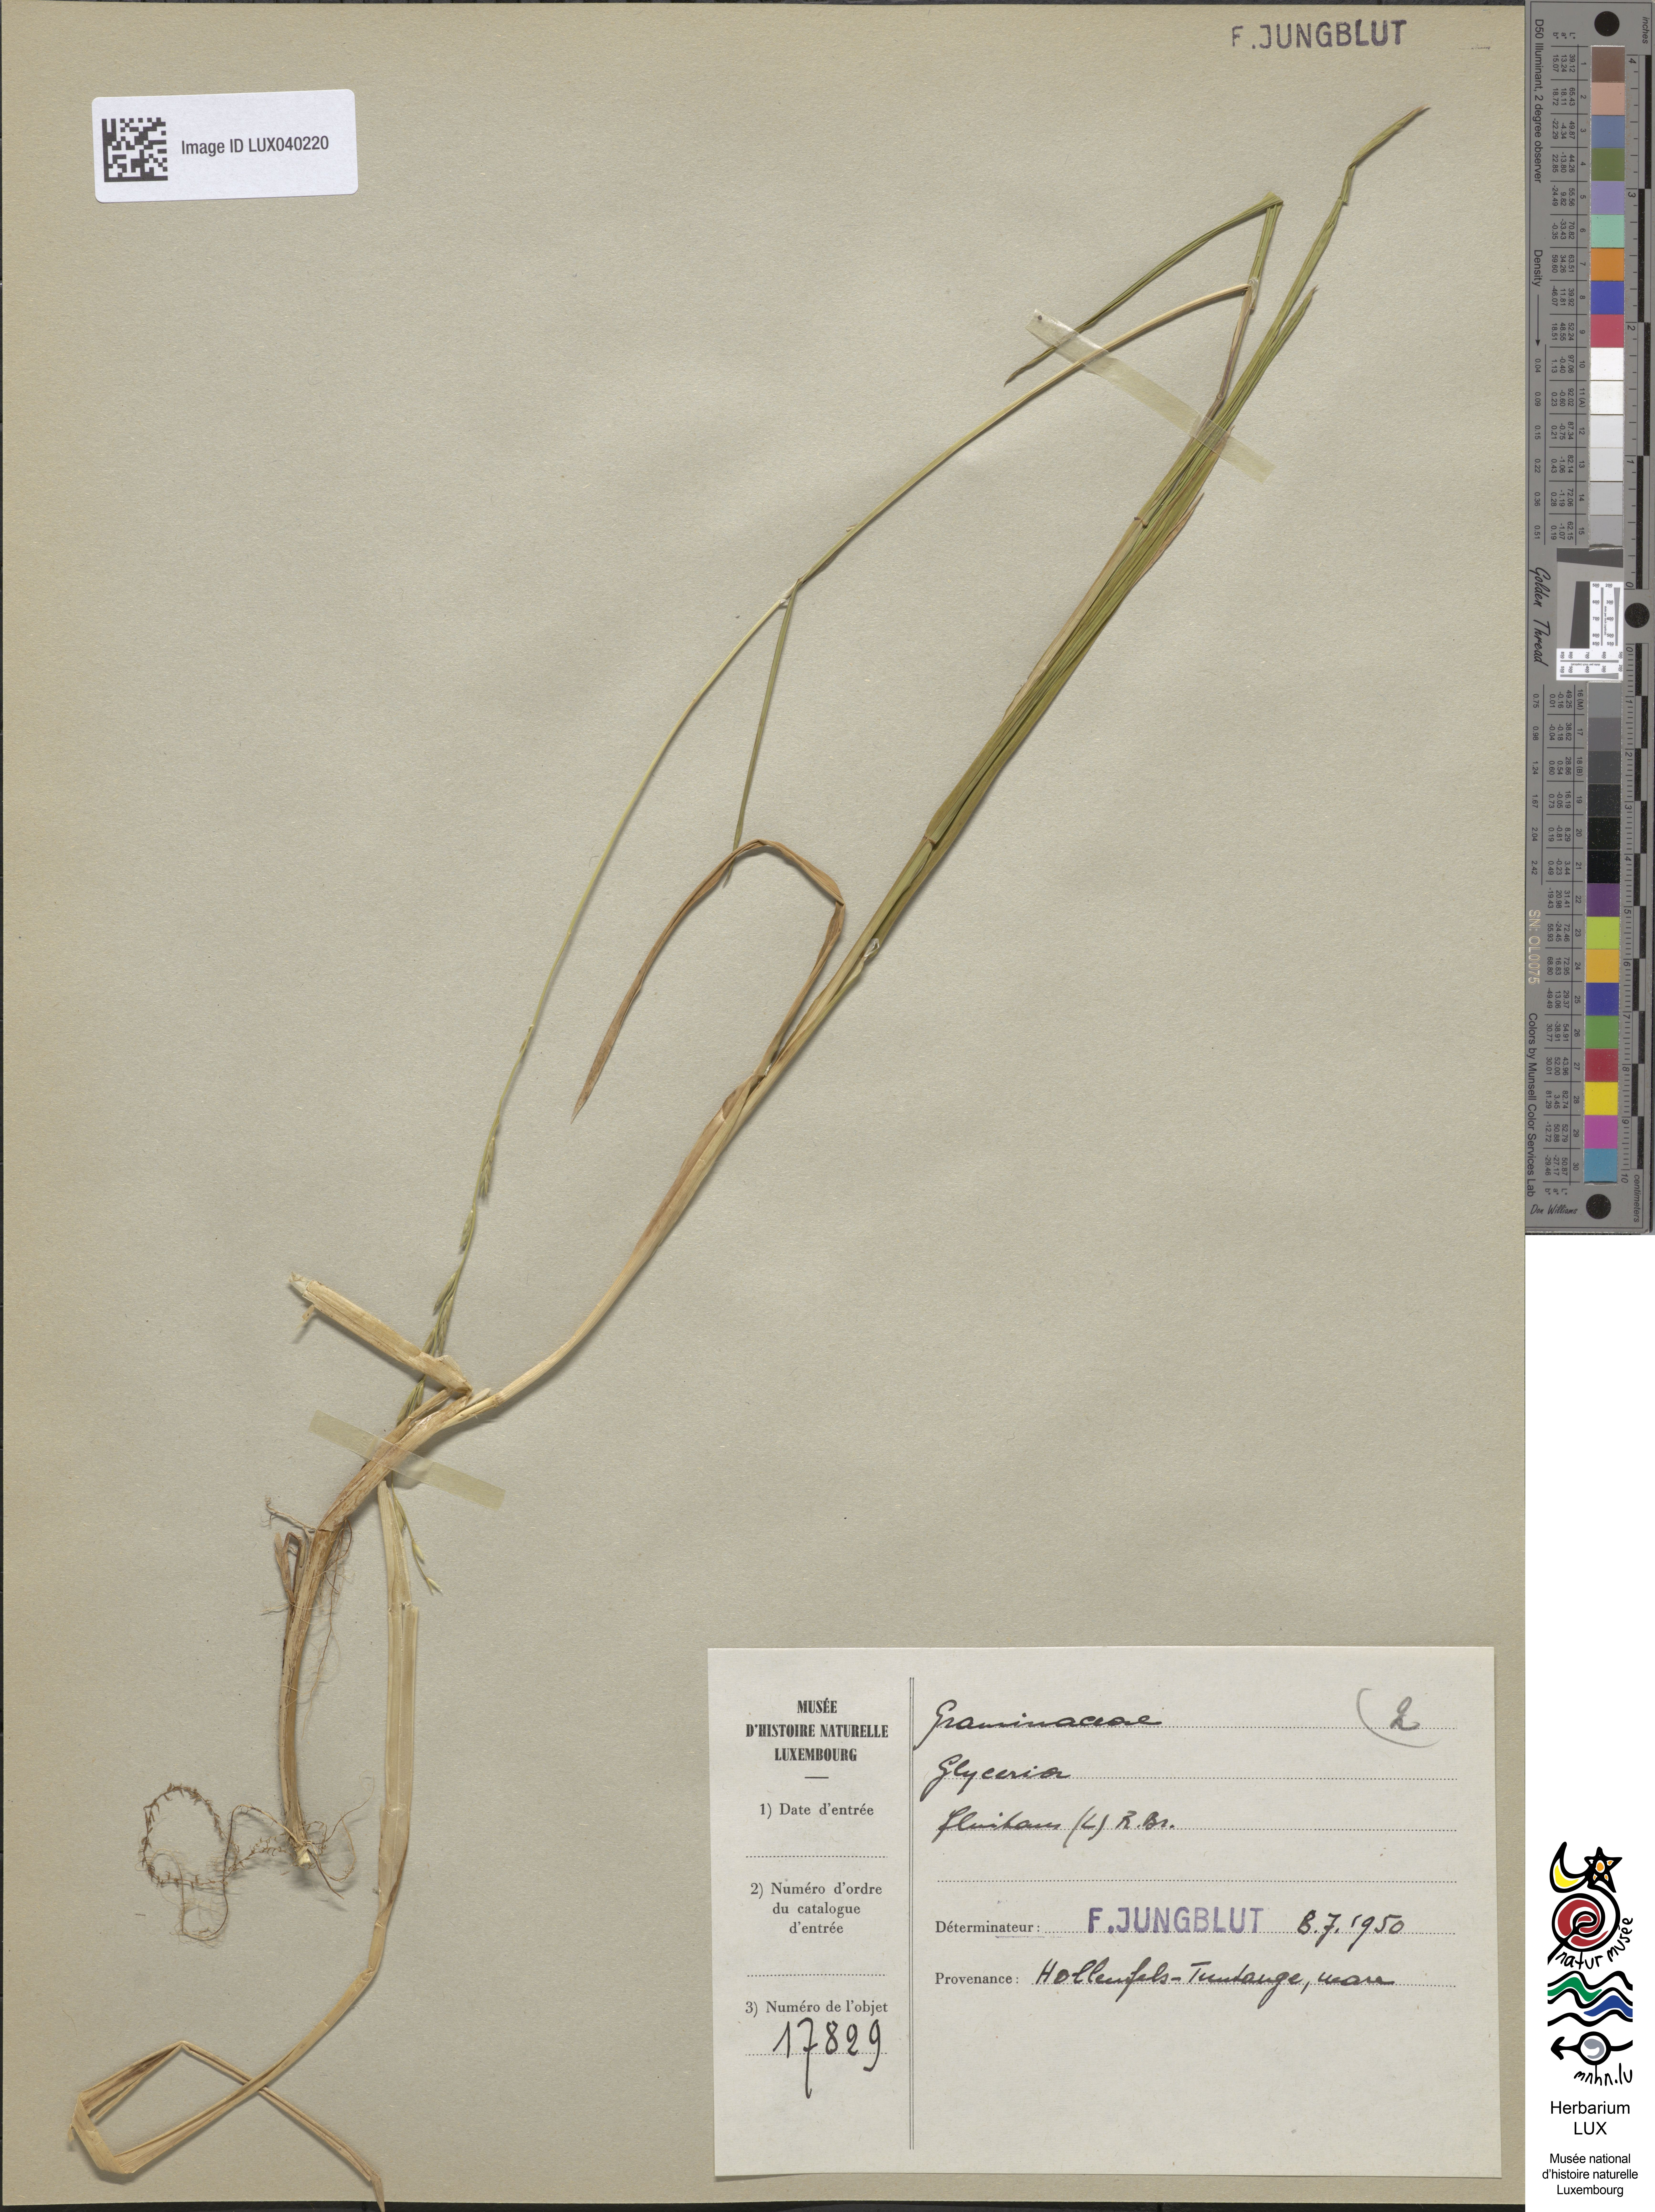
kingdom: Plantae
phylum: Tracheophyta
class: Liliopsida
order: Poales
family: Poaceae
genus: Glyceria
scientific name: Glyceria fluitans
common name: Floating sweet-grass
